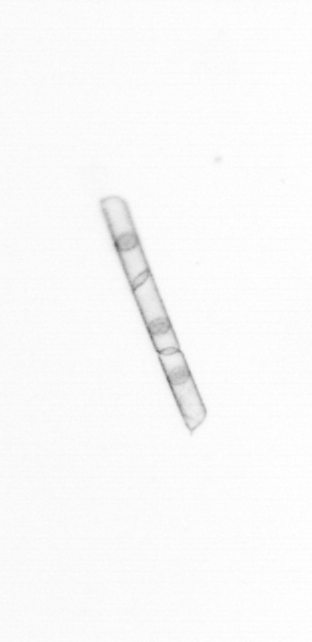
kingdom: Chromista
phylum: Ochrophyta
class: Bacillariophyceae
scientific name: Bacillariophyceae
